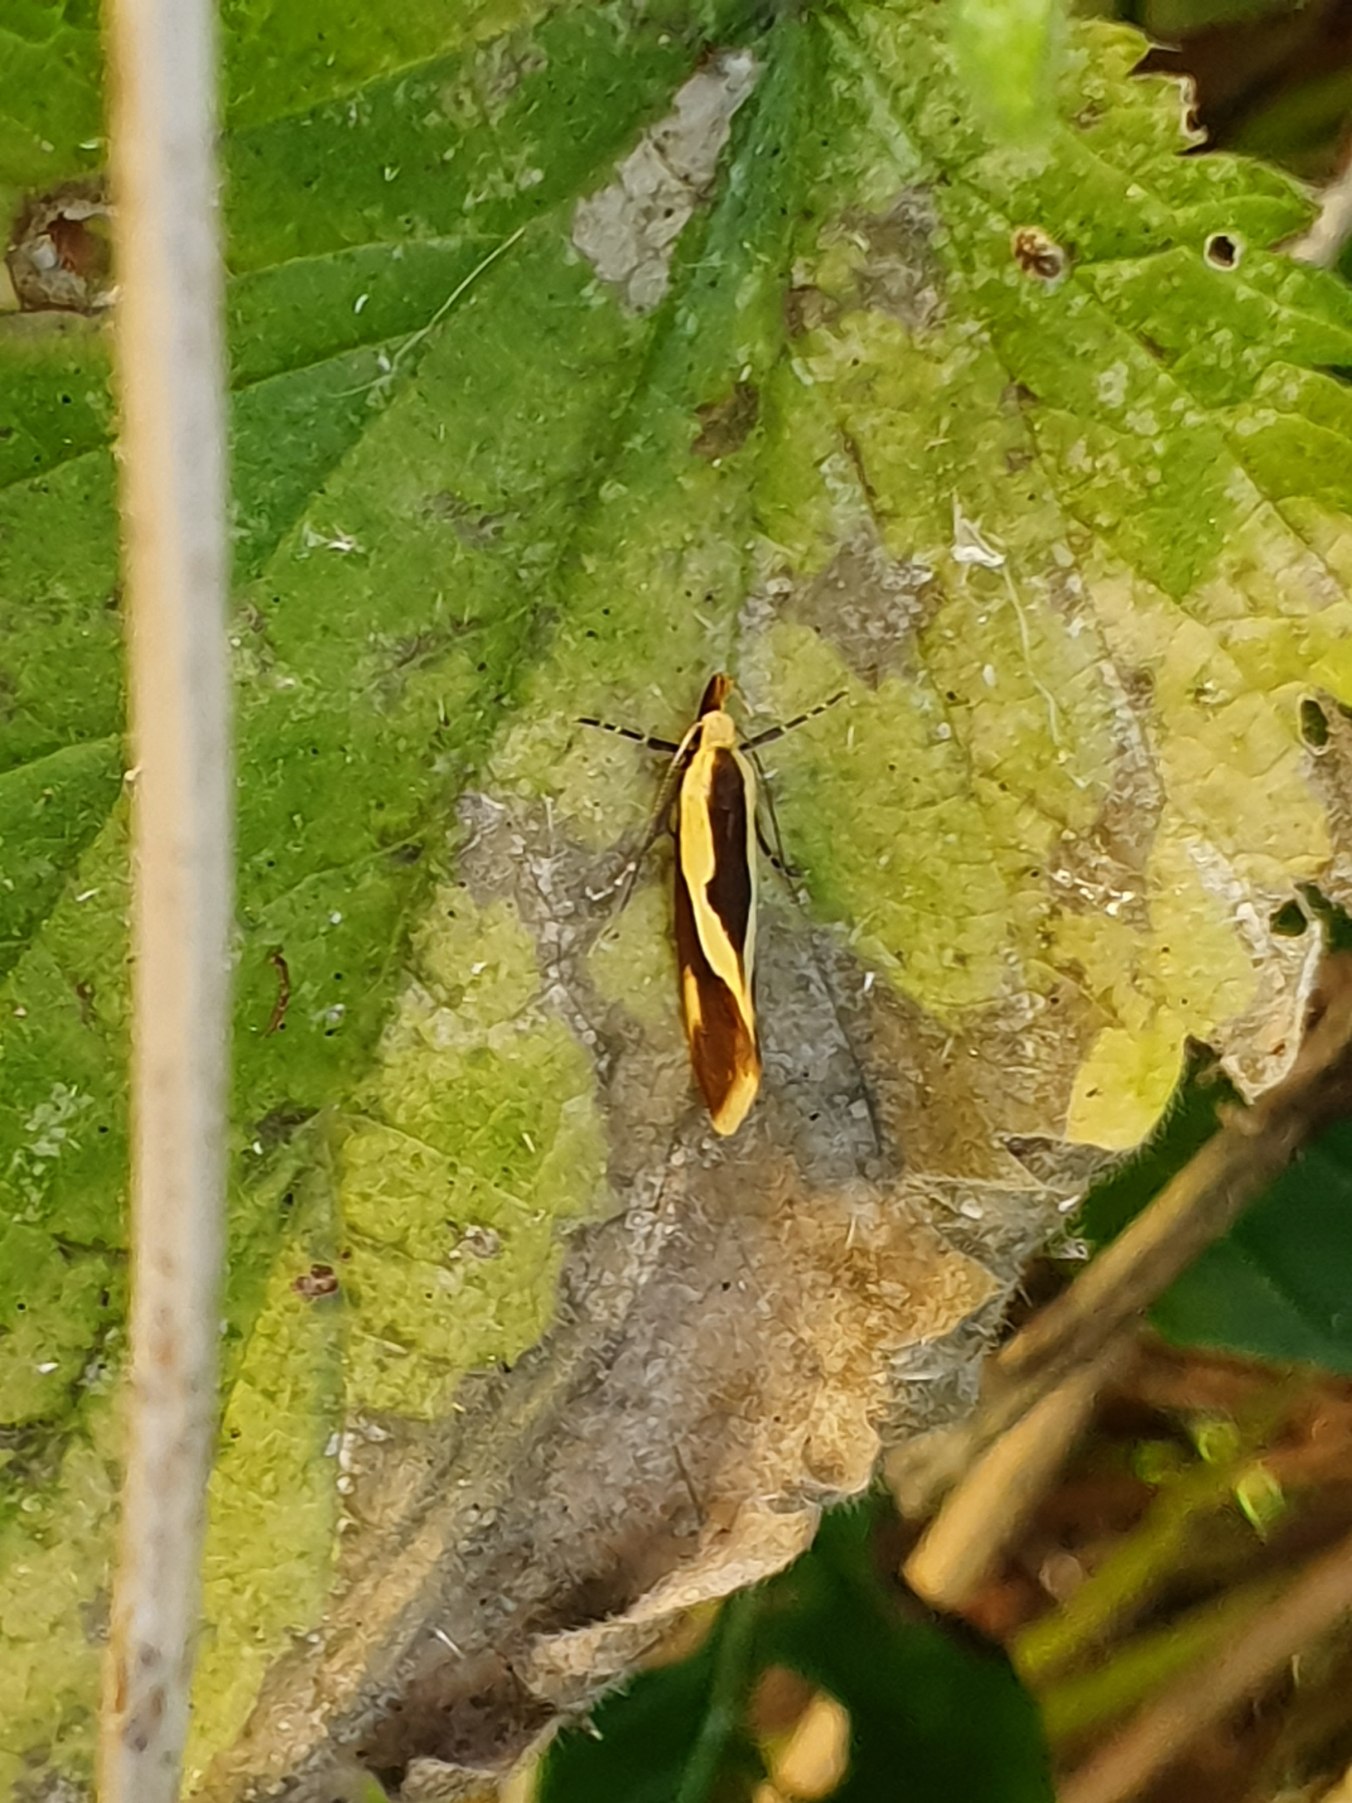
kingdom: Animalia
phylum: Arthropoda
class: Insecta
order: Lepidoptera
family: Oecophoridae
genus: Harpella
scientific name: Harpella forficella
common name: Kæmpeprydvinge
